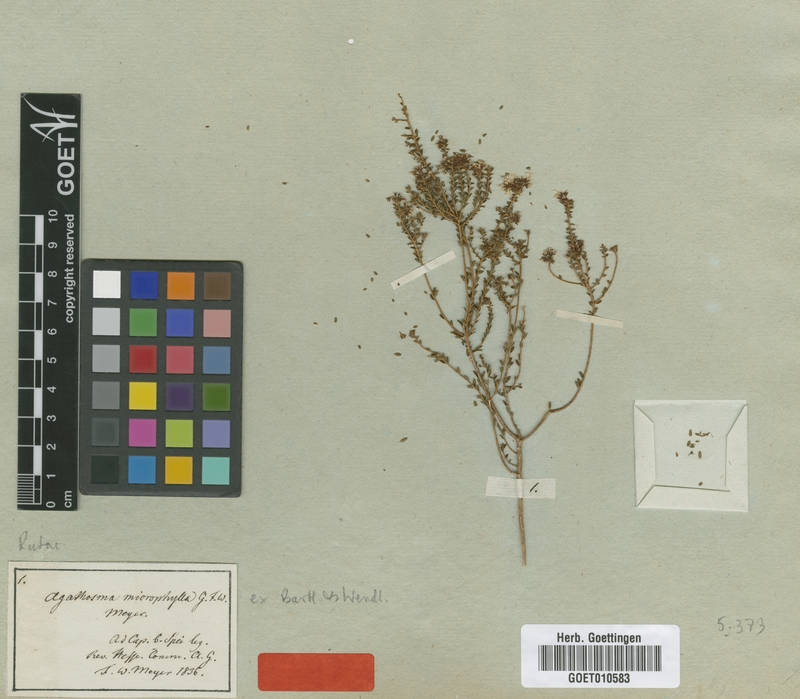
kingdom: Plantae
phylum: Tracheophyta
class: Magnoliopsida
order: Sapindales
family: Rutaceae
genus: Agathosma
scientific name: Agathosma cerefolia
